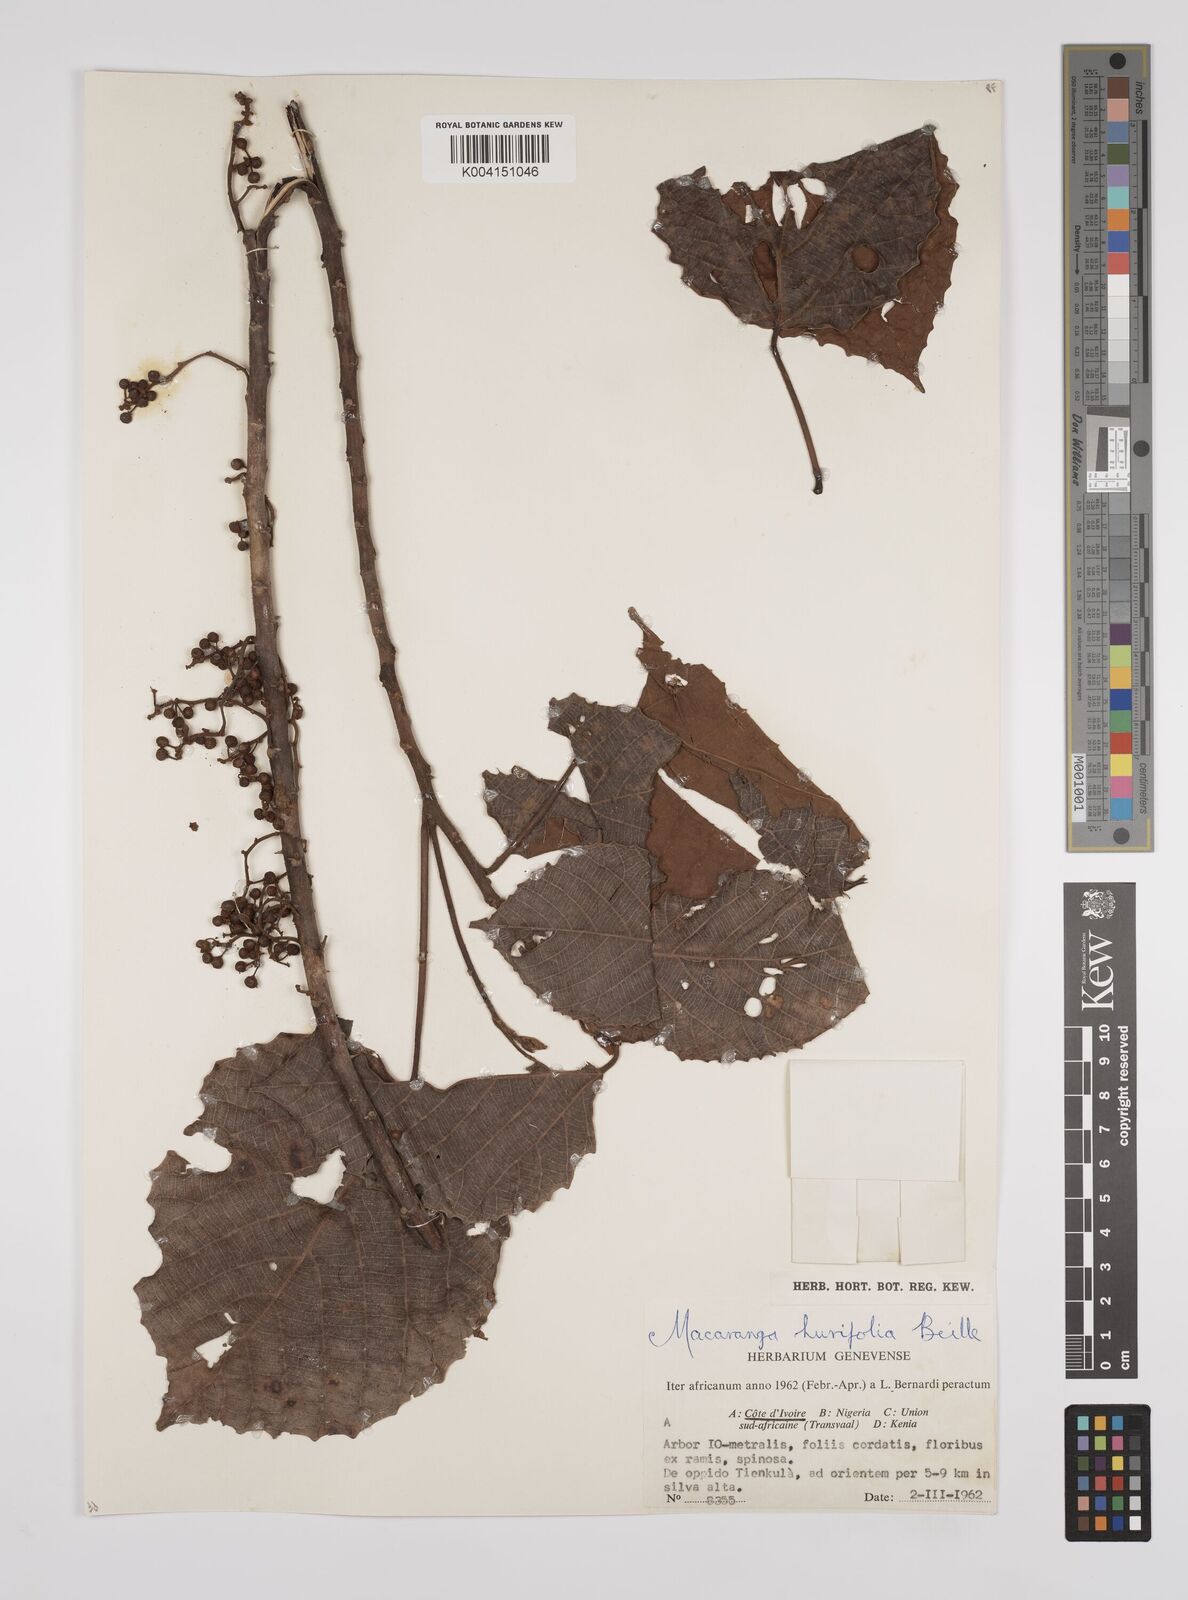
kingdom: Plantae
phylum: Tracheophyta
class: Magnoliopsida
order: Malpighiales
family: Euphorbiaceae
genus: Macaranga
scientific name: Macaranga hurifolia
